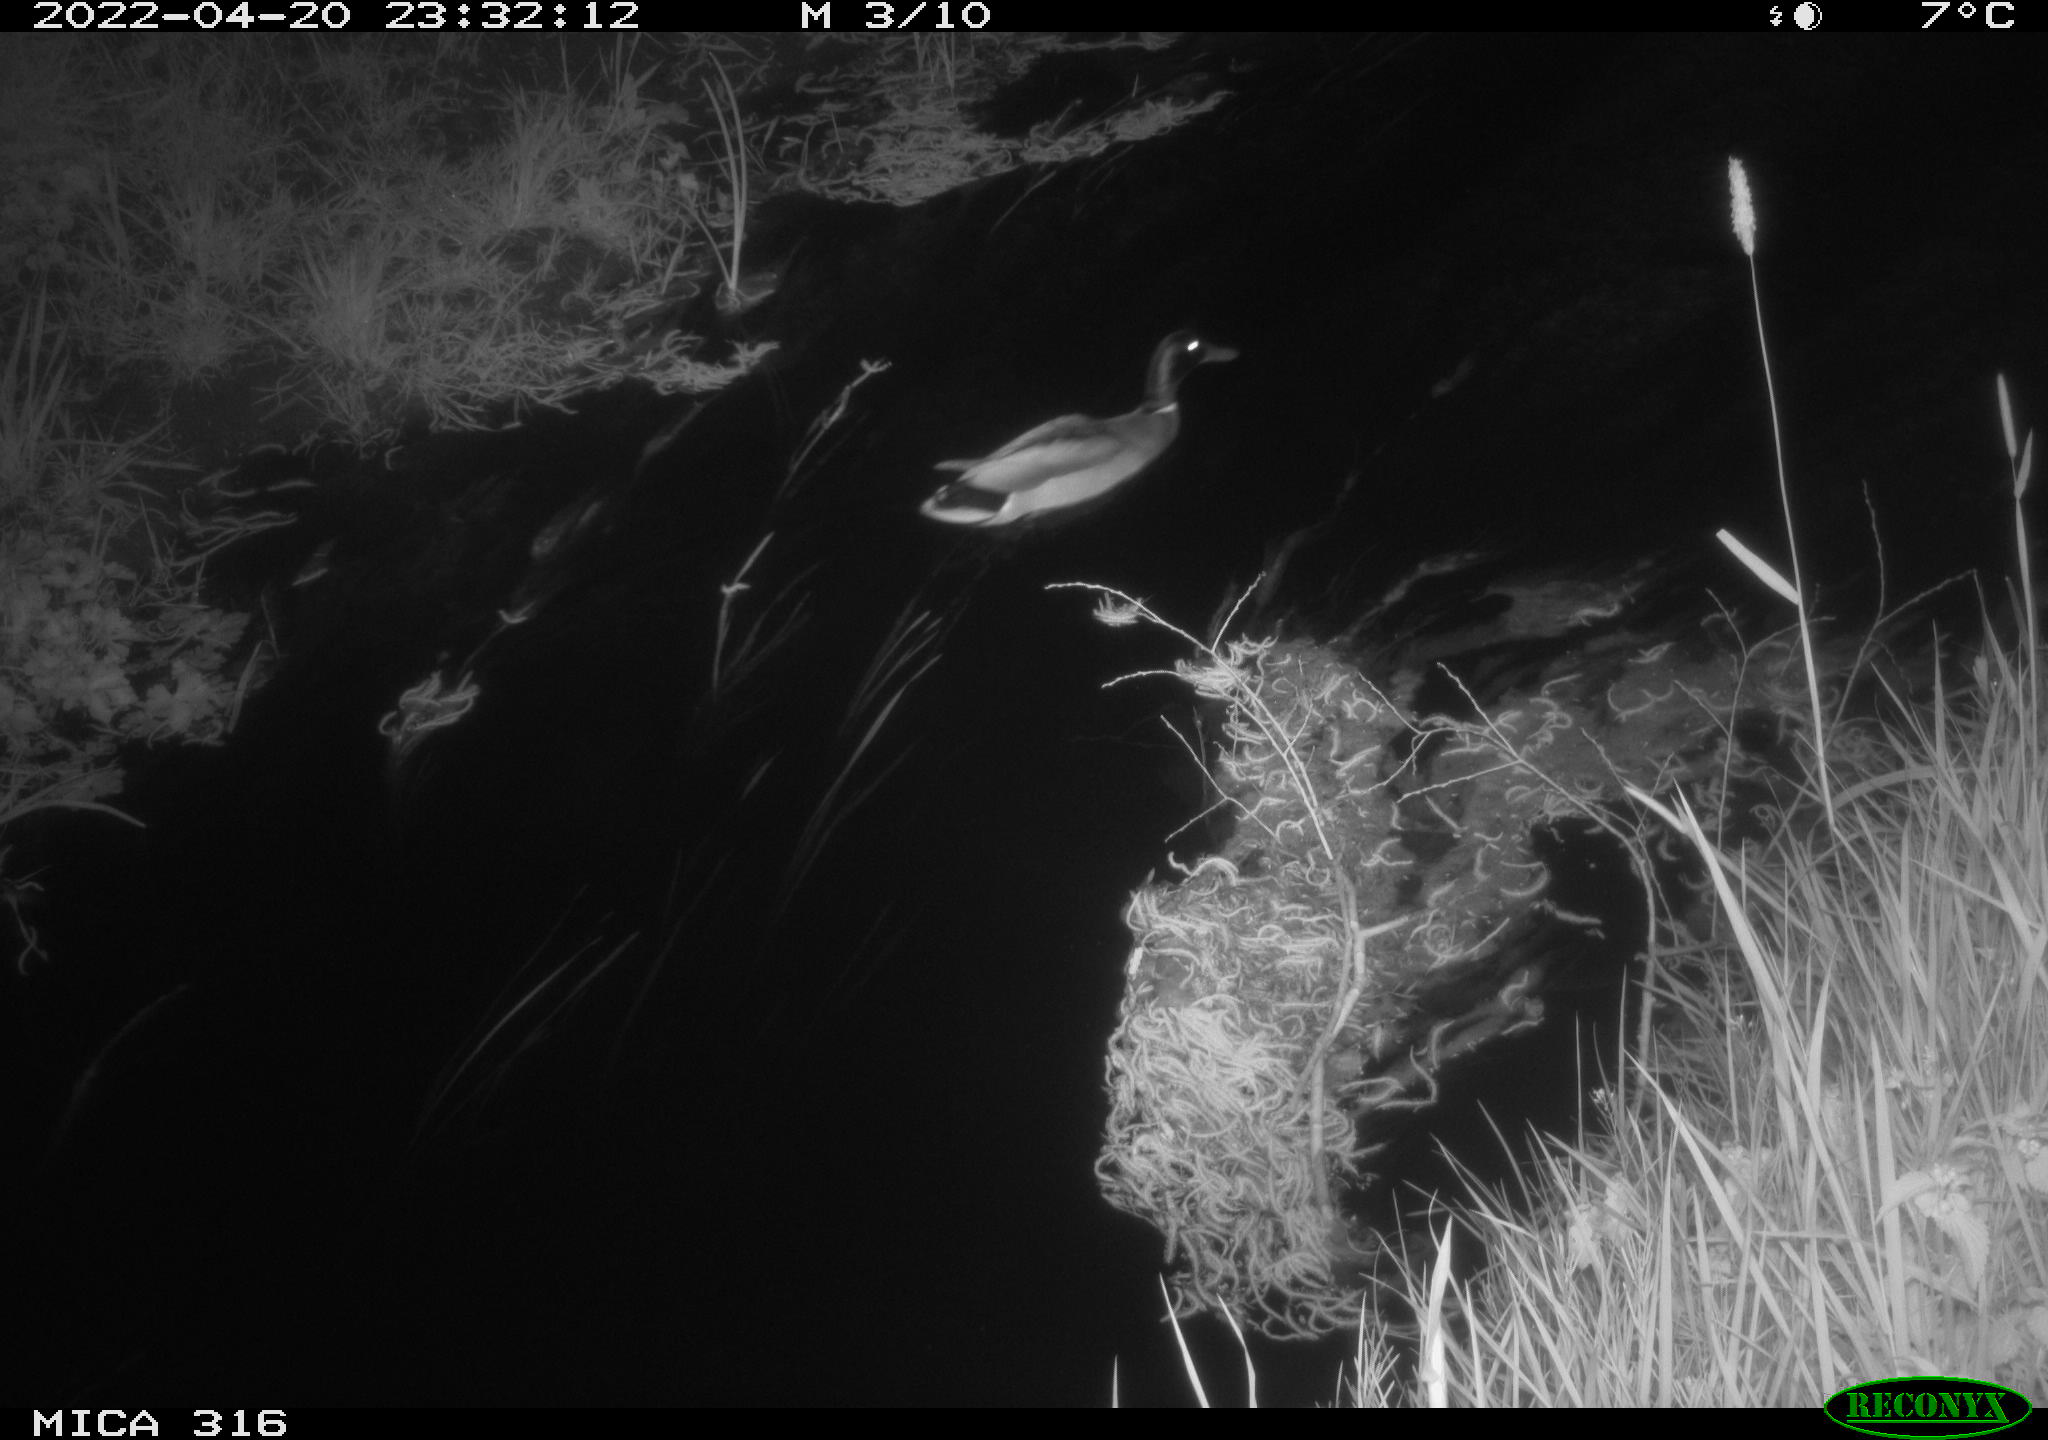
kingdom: Animalia
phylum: Chordata
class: Aves
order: Anseriformes
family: Anatidae
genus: Anas
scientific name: Anas platyrhynchos
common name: Mallard
